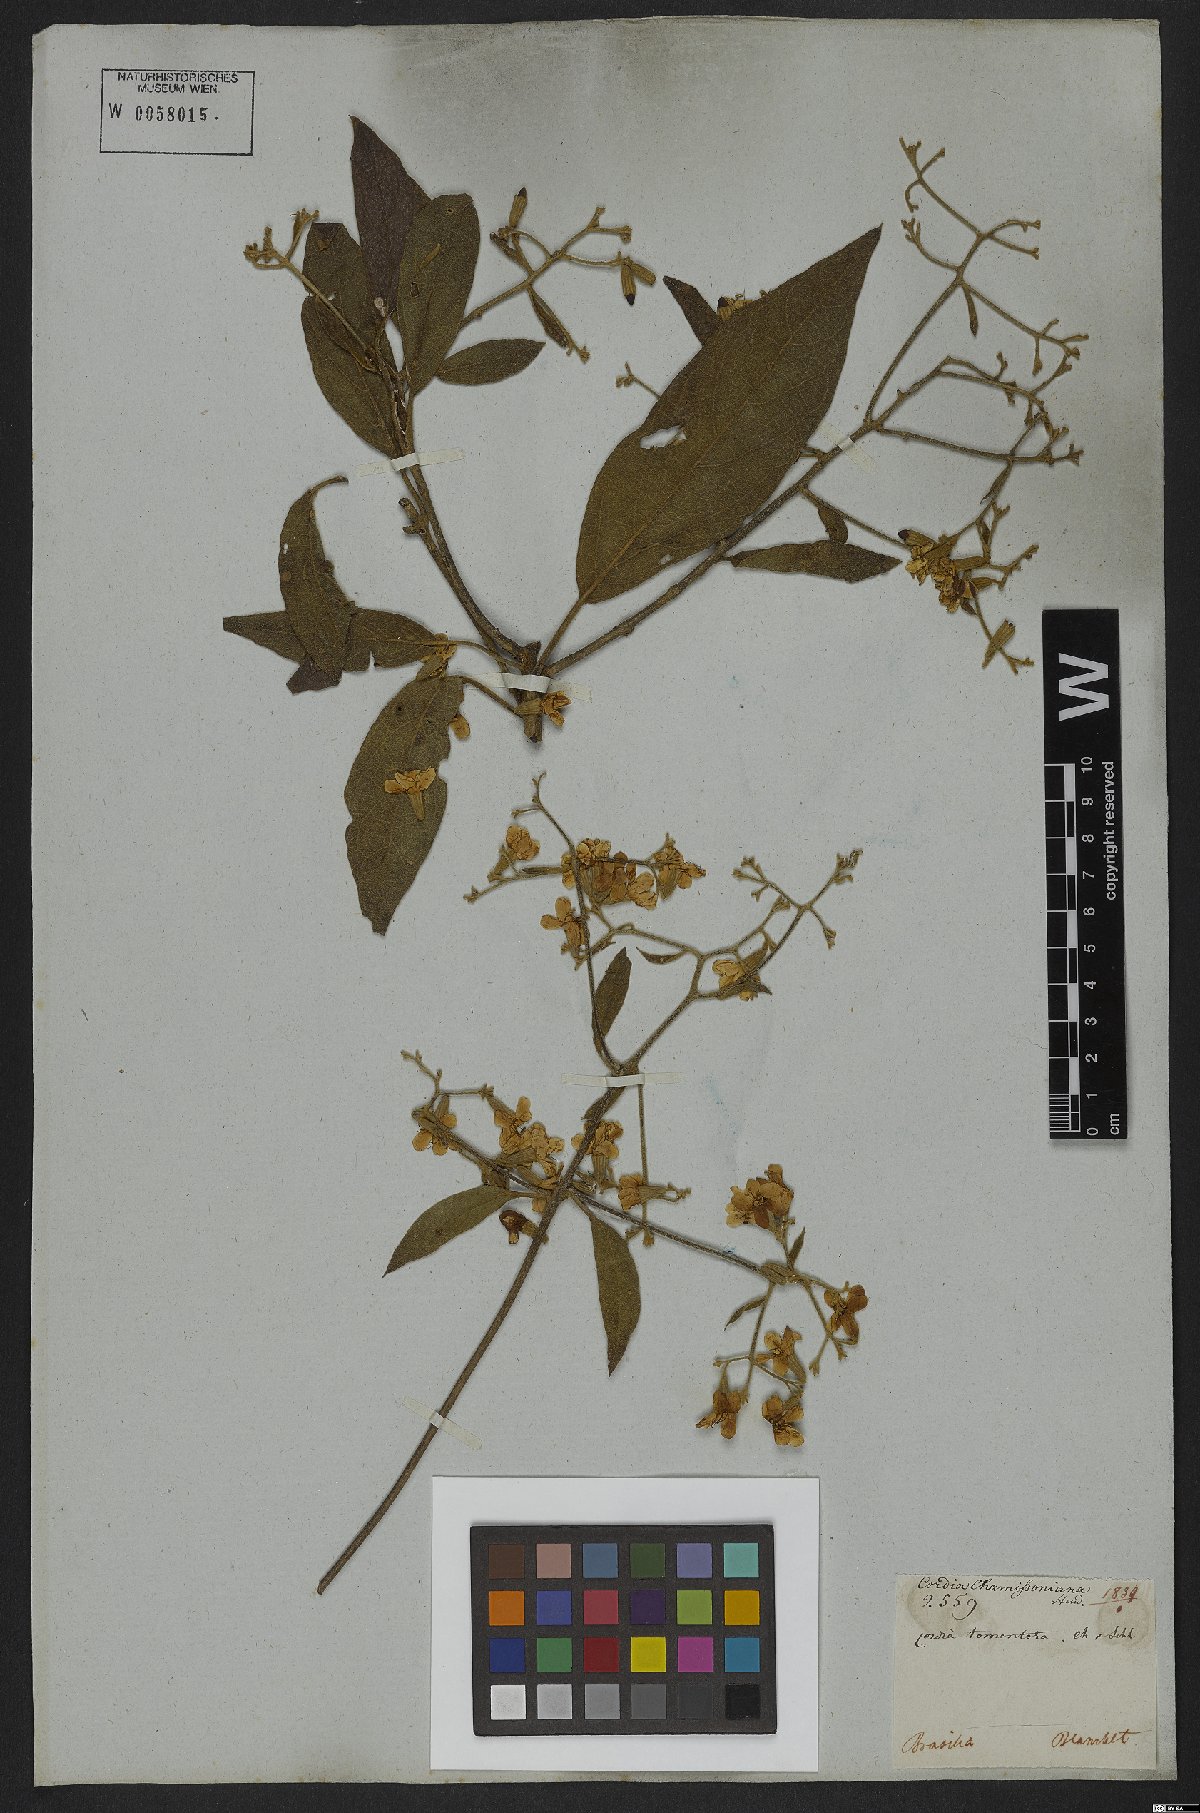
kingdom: Plantae
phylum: Tracheophyta
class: Magnoliopsida
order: Boraginales
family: Cordiaceae
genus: Cordia
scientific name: Cordia chamissoniana
